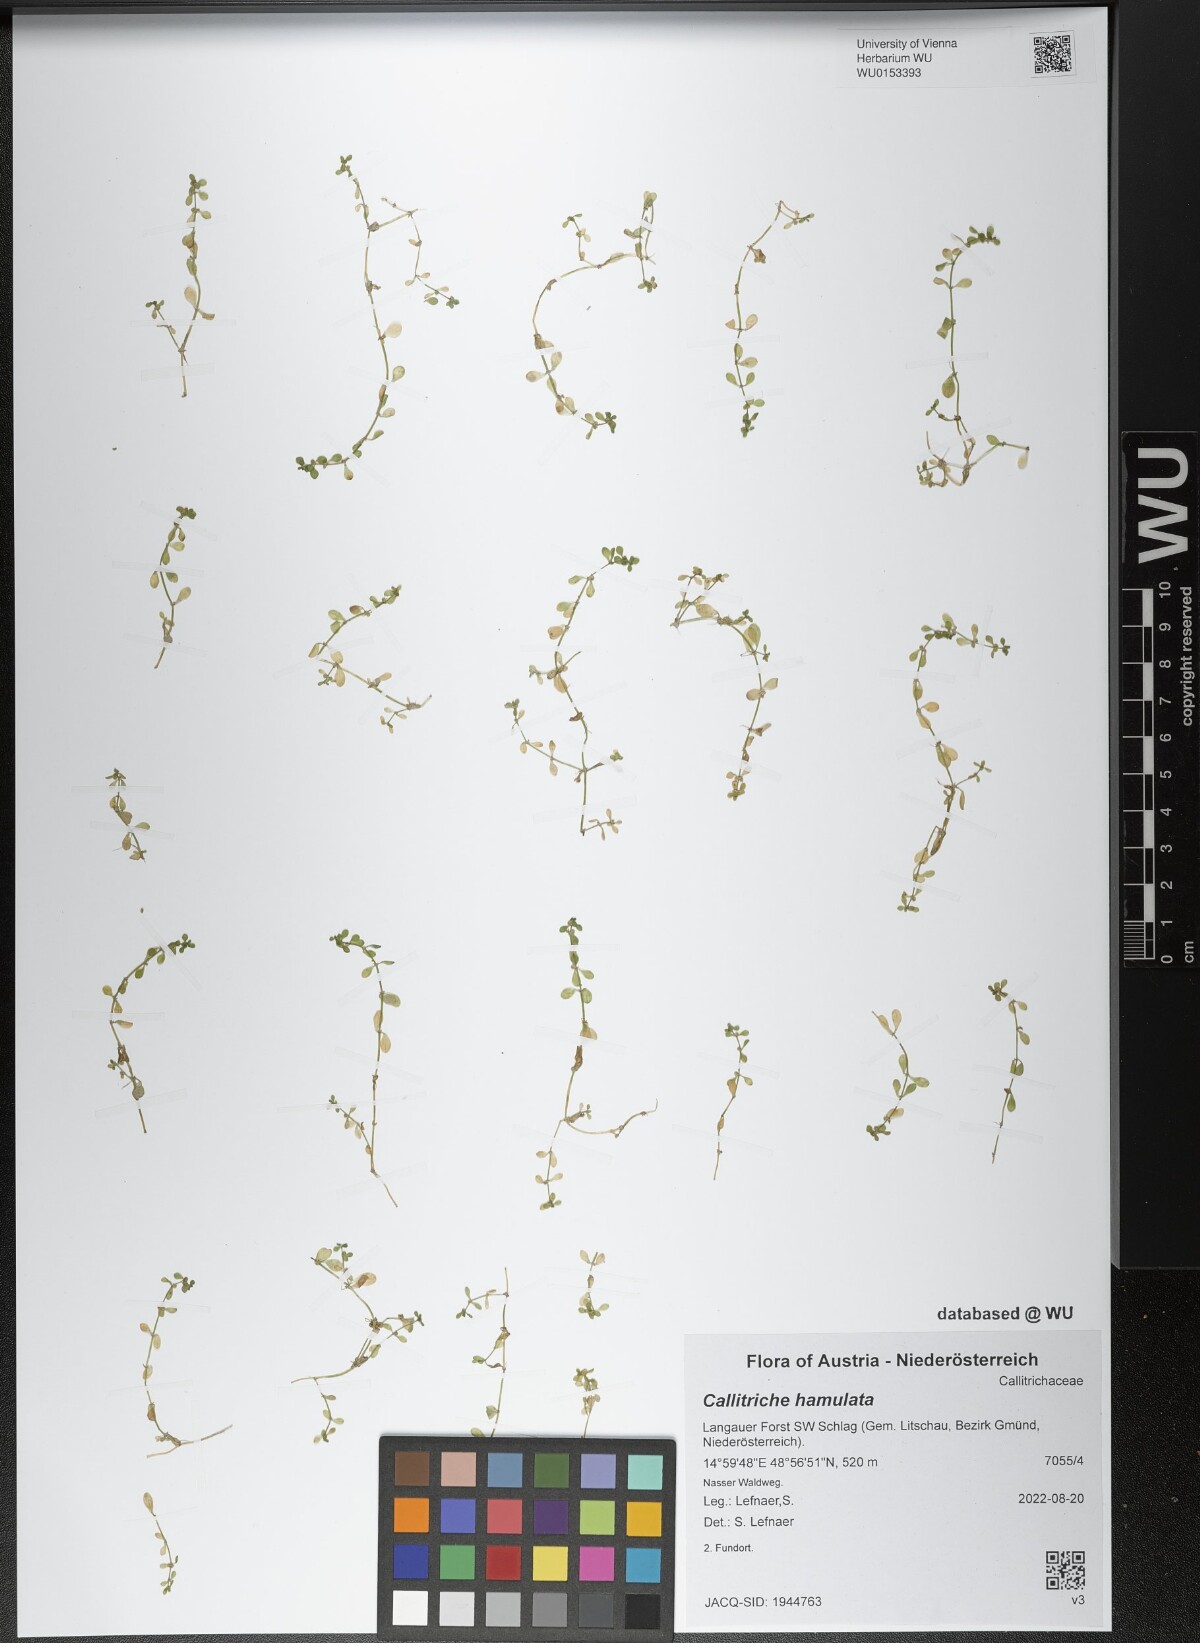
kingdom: Plantae
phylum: Tracheophyta
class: Magnoliopsida
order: Lamiales
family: Plantaginaceae
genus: Callitriche
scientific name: Callitriche hamulata
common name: Intermediate water-starwort
